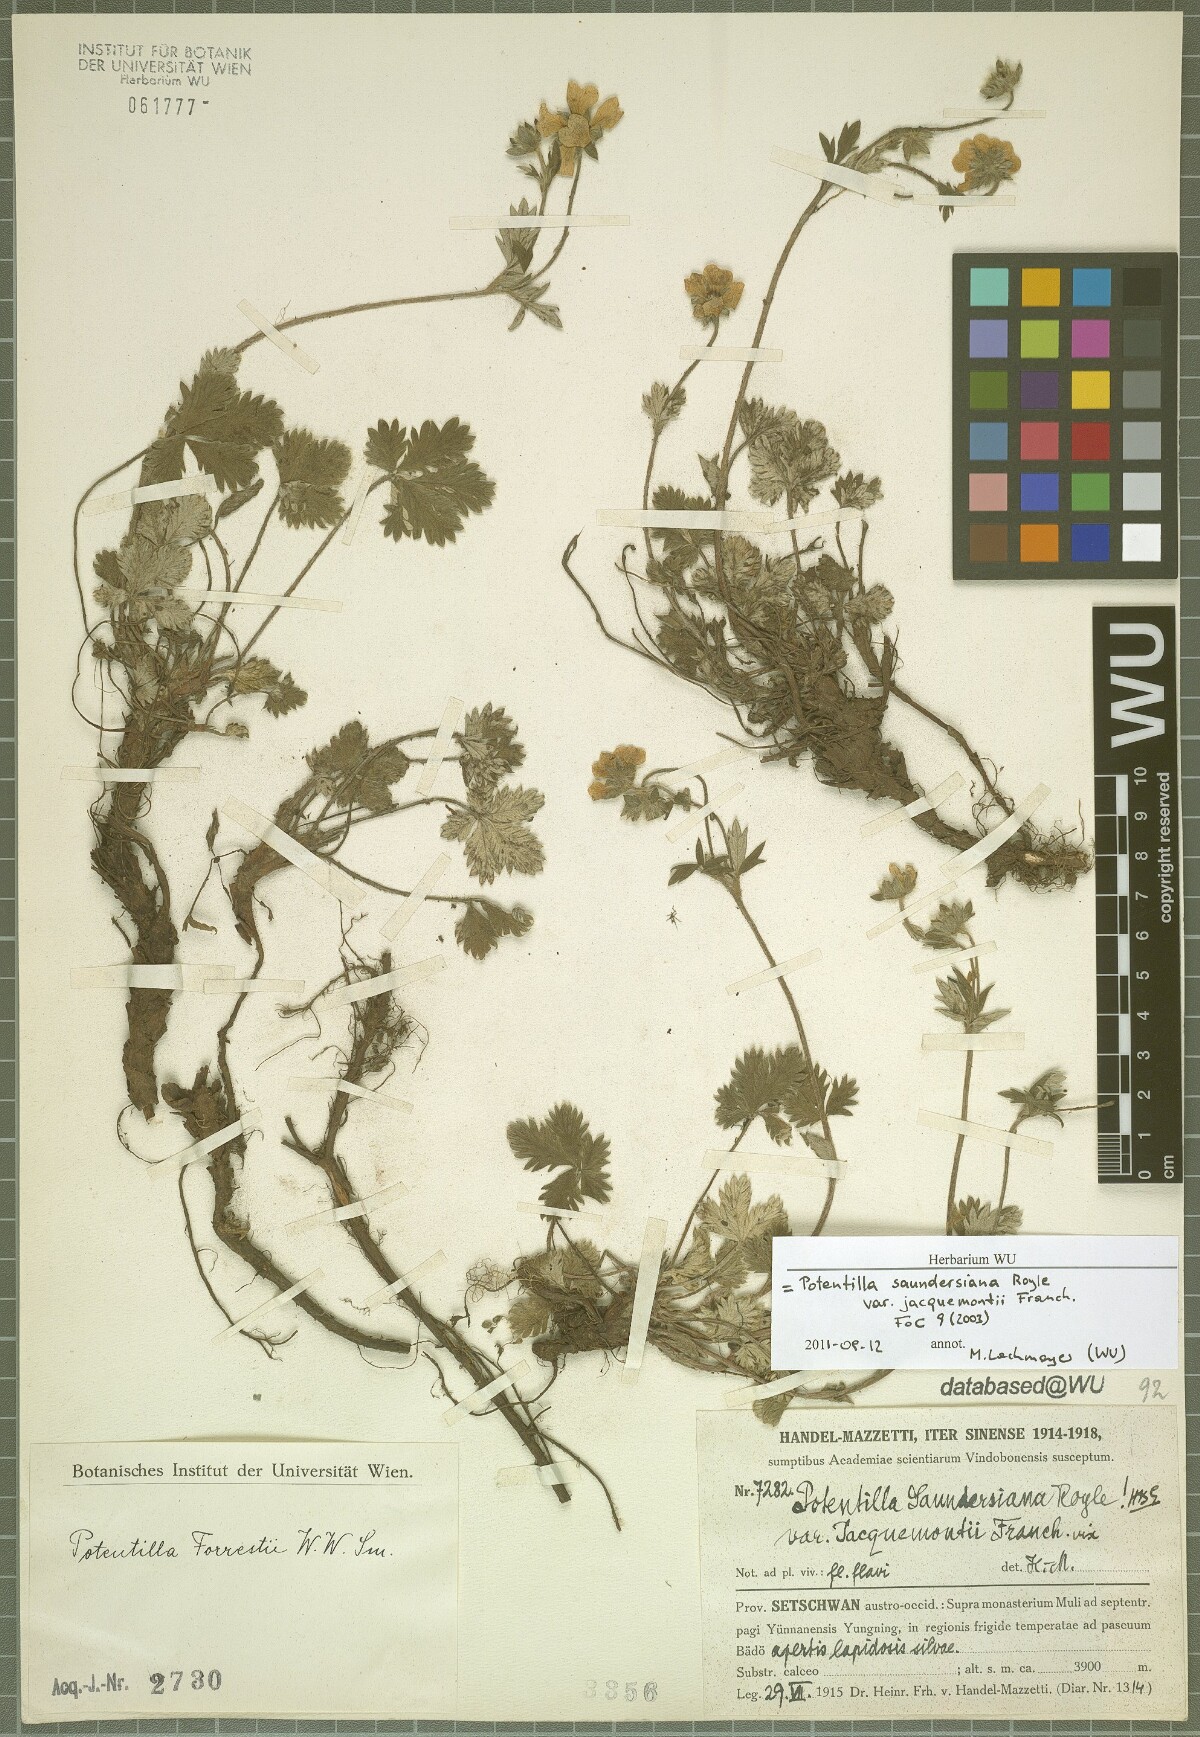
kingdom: Plantae
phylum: Tracheophyta
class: Magnoliopsida
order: Rosales
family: Rosaceae
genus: Potentilla
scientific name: Potentilla forrestii
